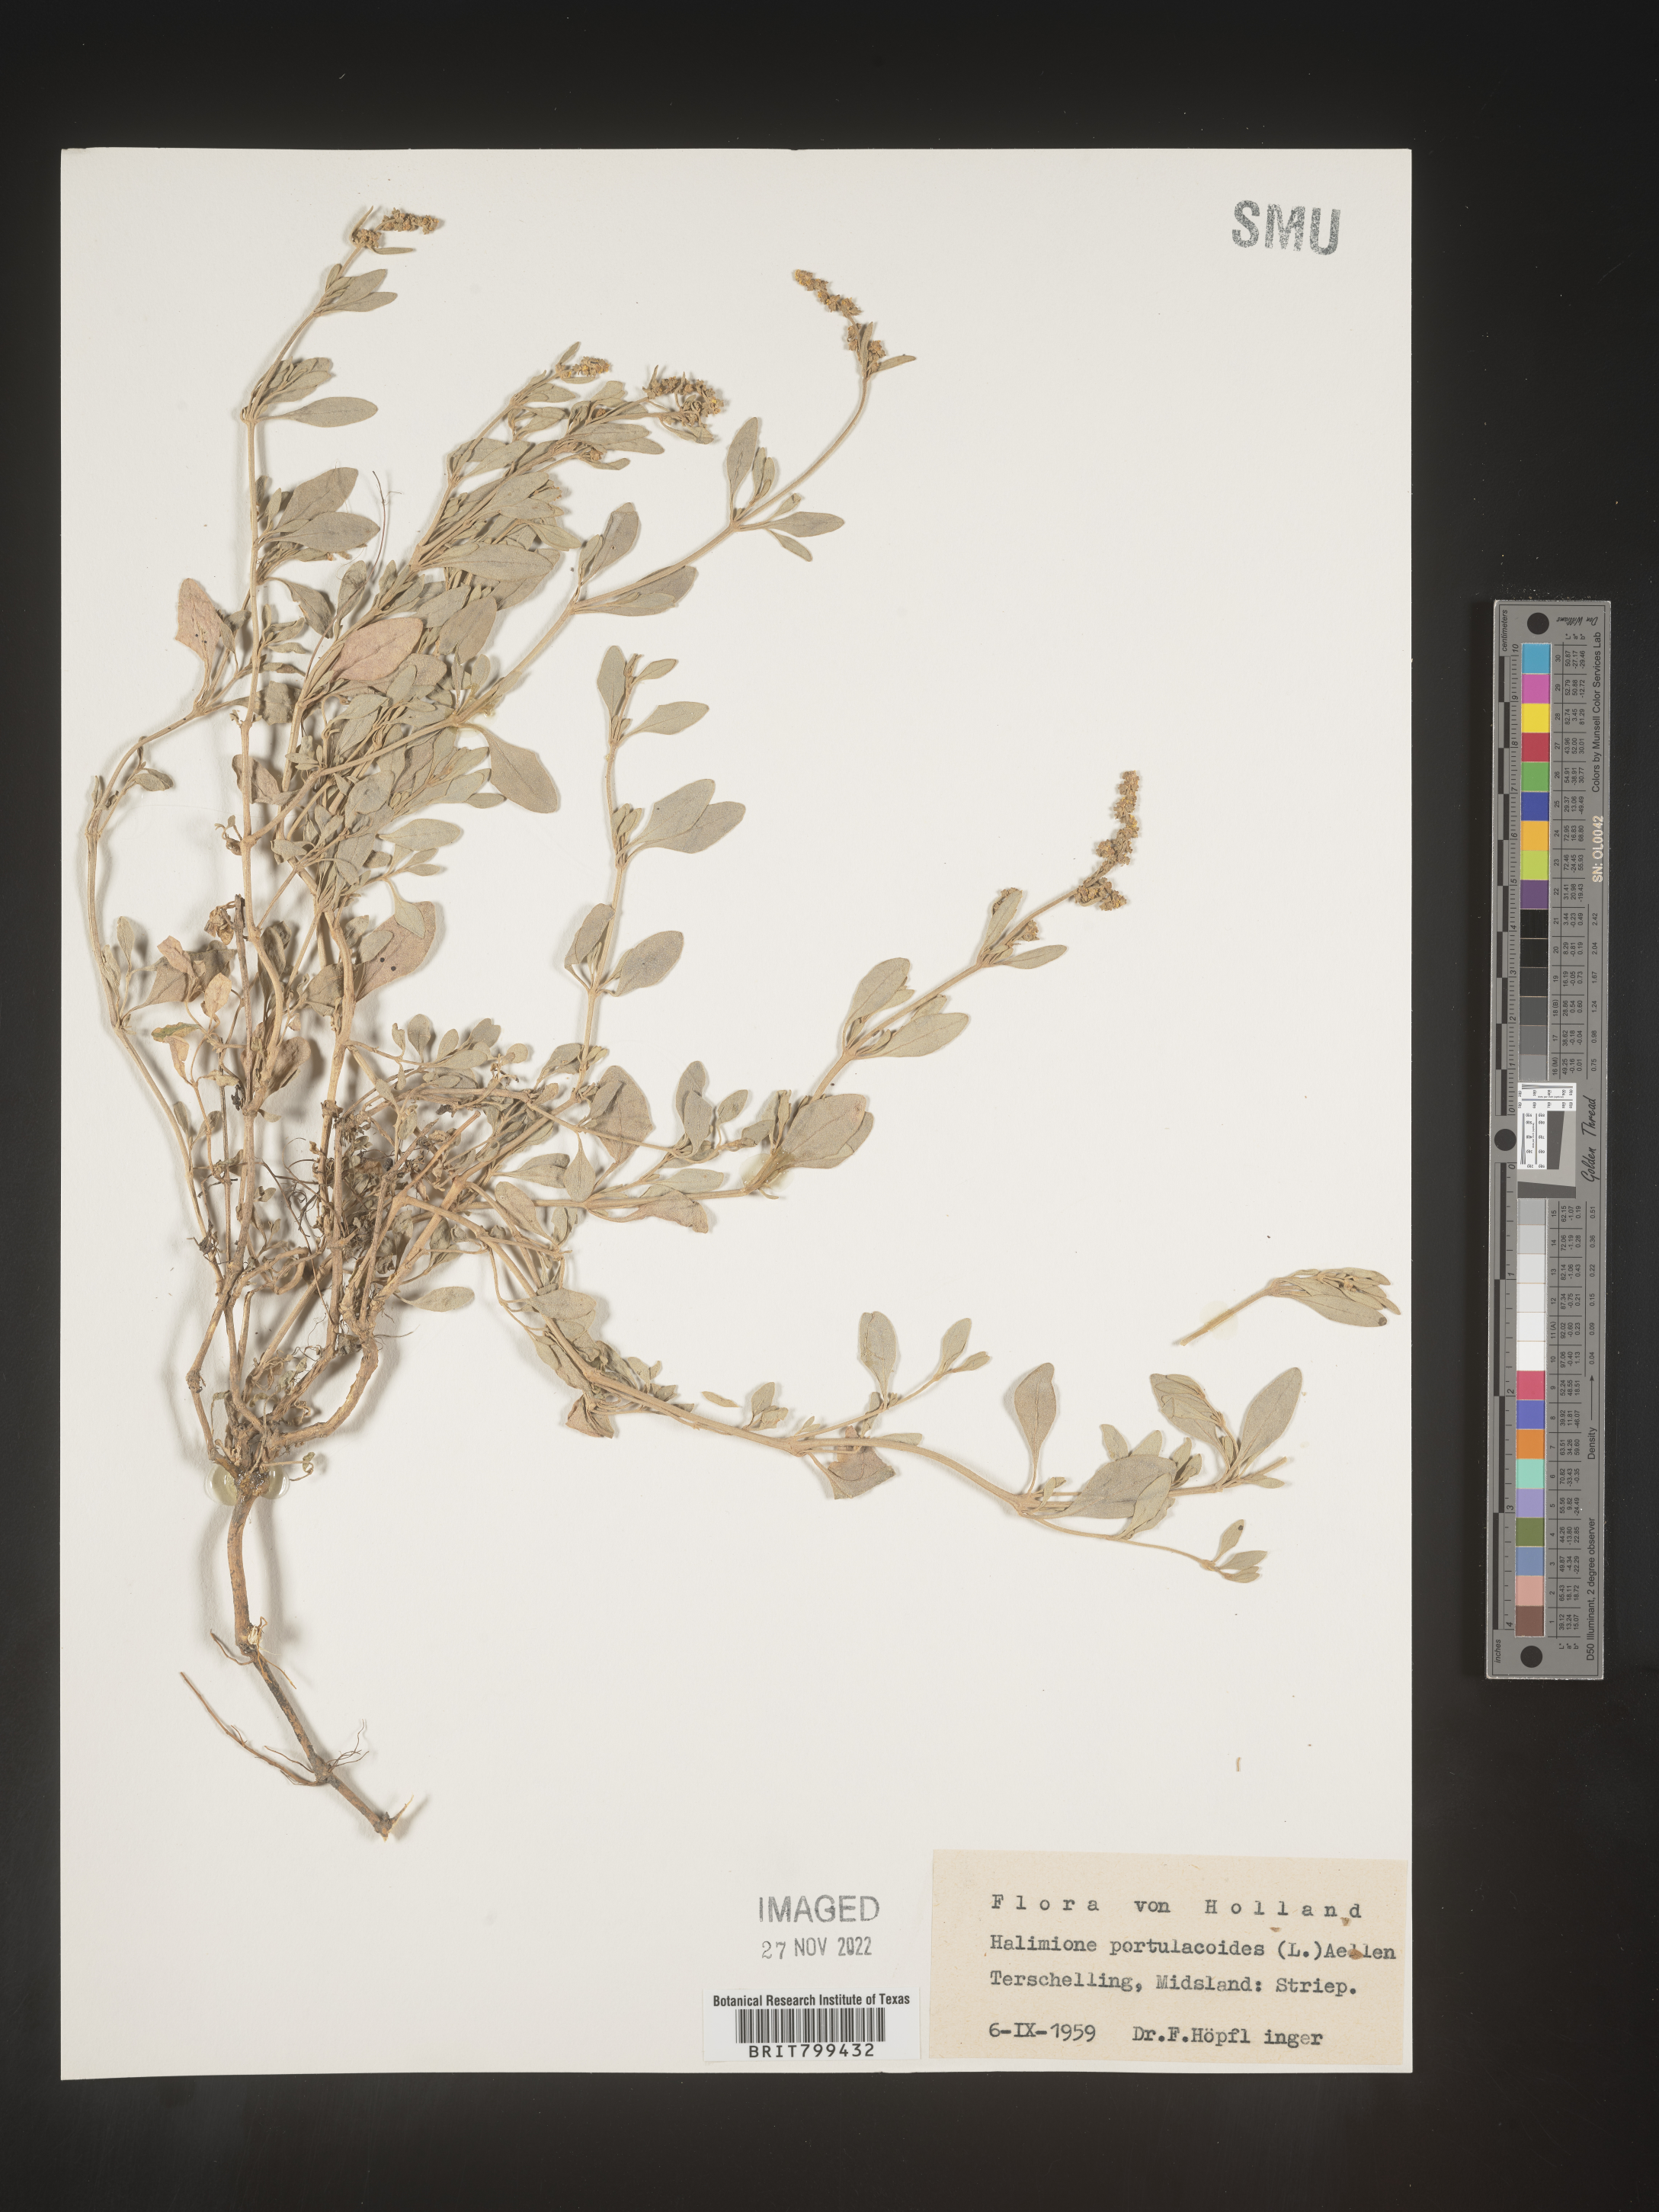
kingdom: Plantae
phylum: Tracheophyta
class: Magnoliopsida
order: Caryophyllales
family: Amaranthaceae
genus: Halimione
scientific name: Halimione
